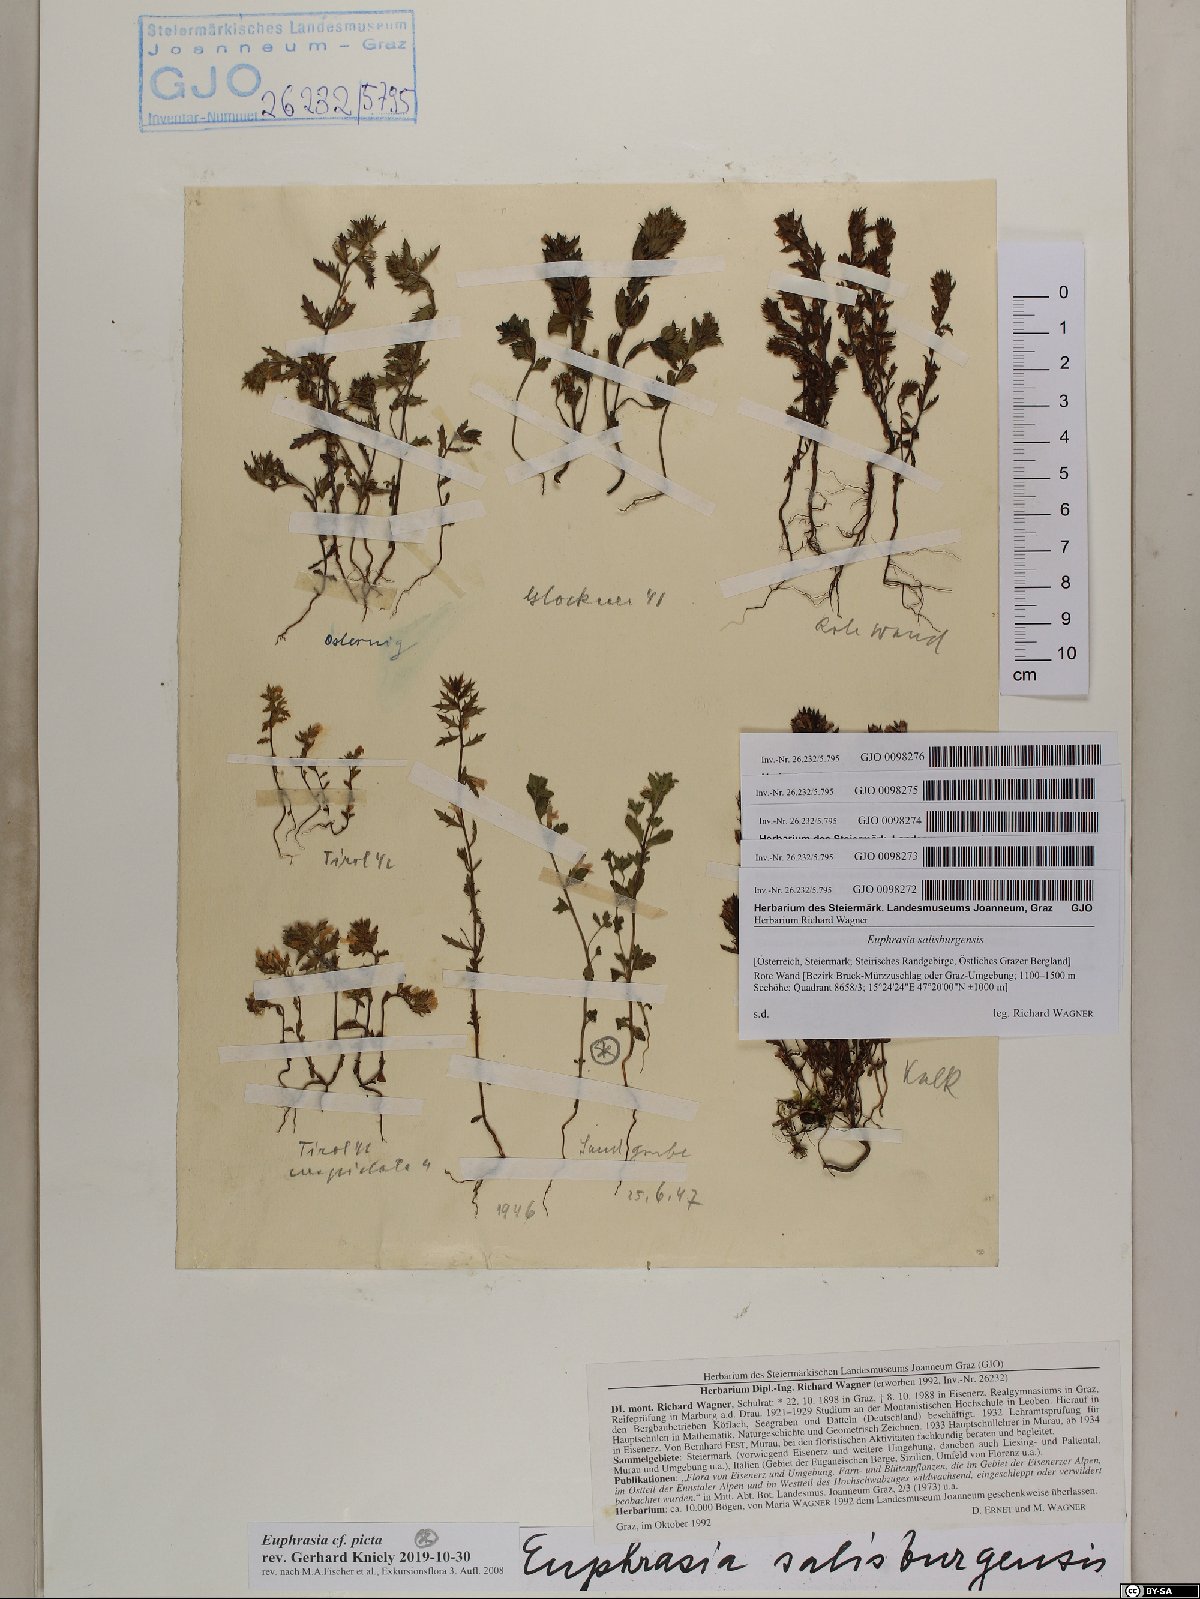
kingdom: Plantae
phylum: Tracheophyta
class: Magnoliopsida
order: Lamiales
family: Orobanchaceae
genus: Euphrasia
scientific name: Euphrasia salisburgensis
